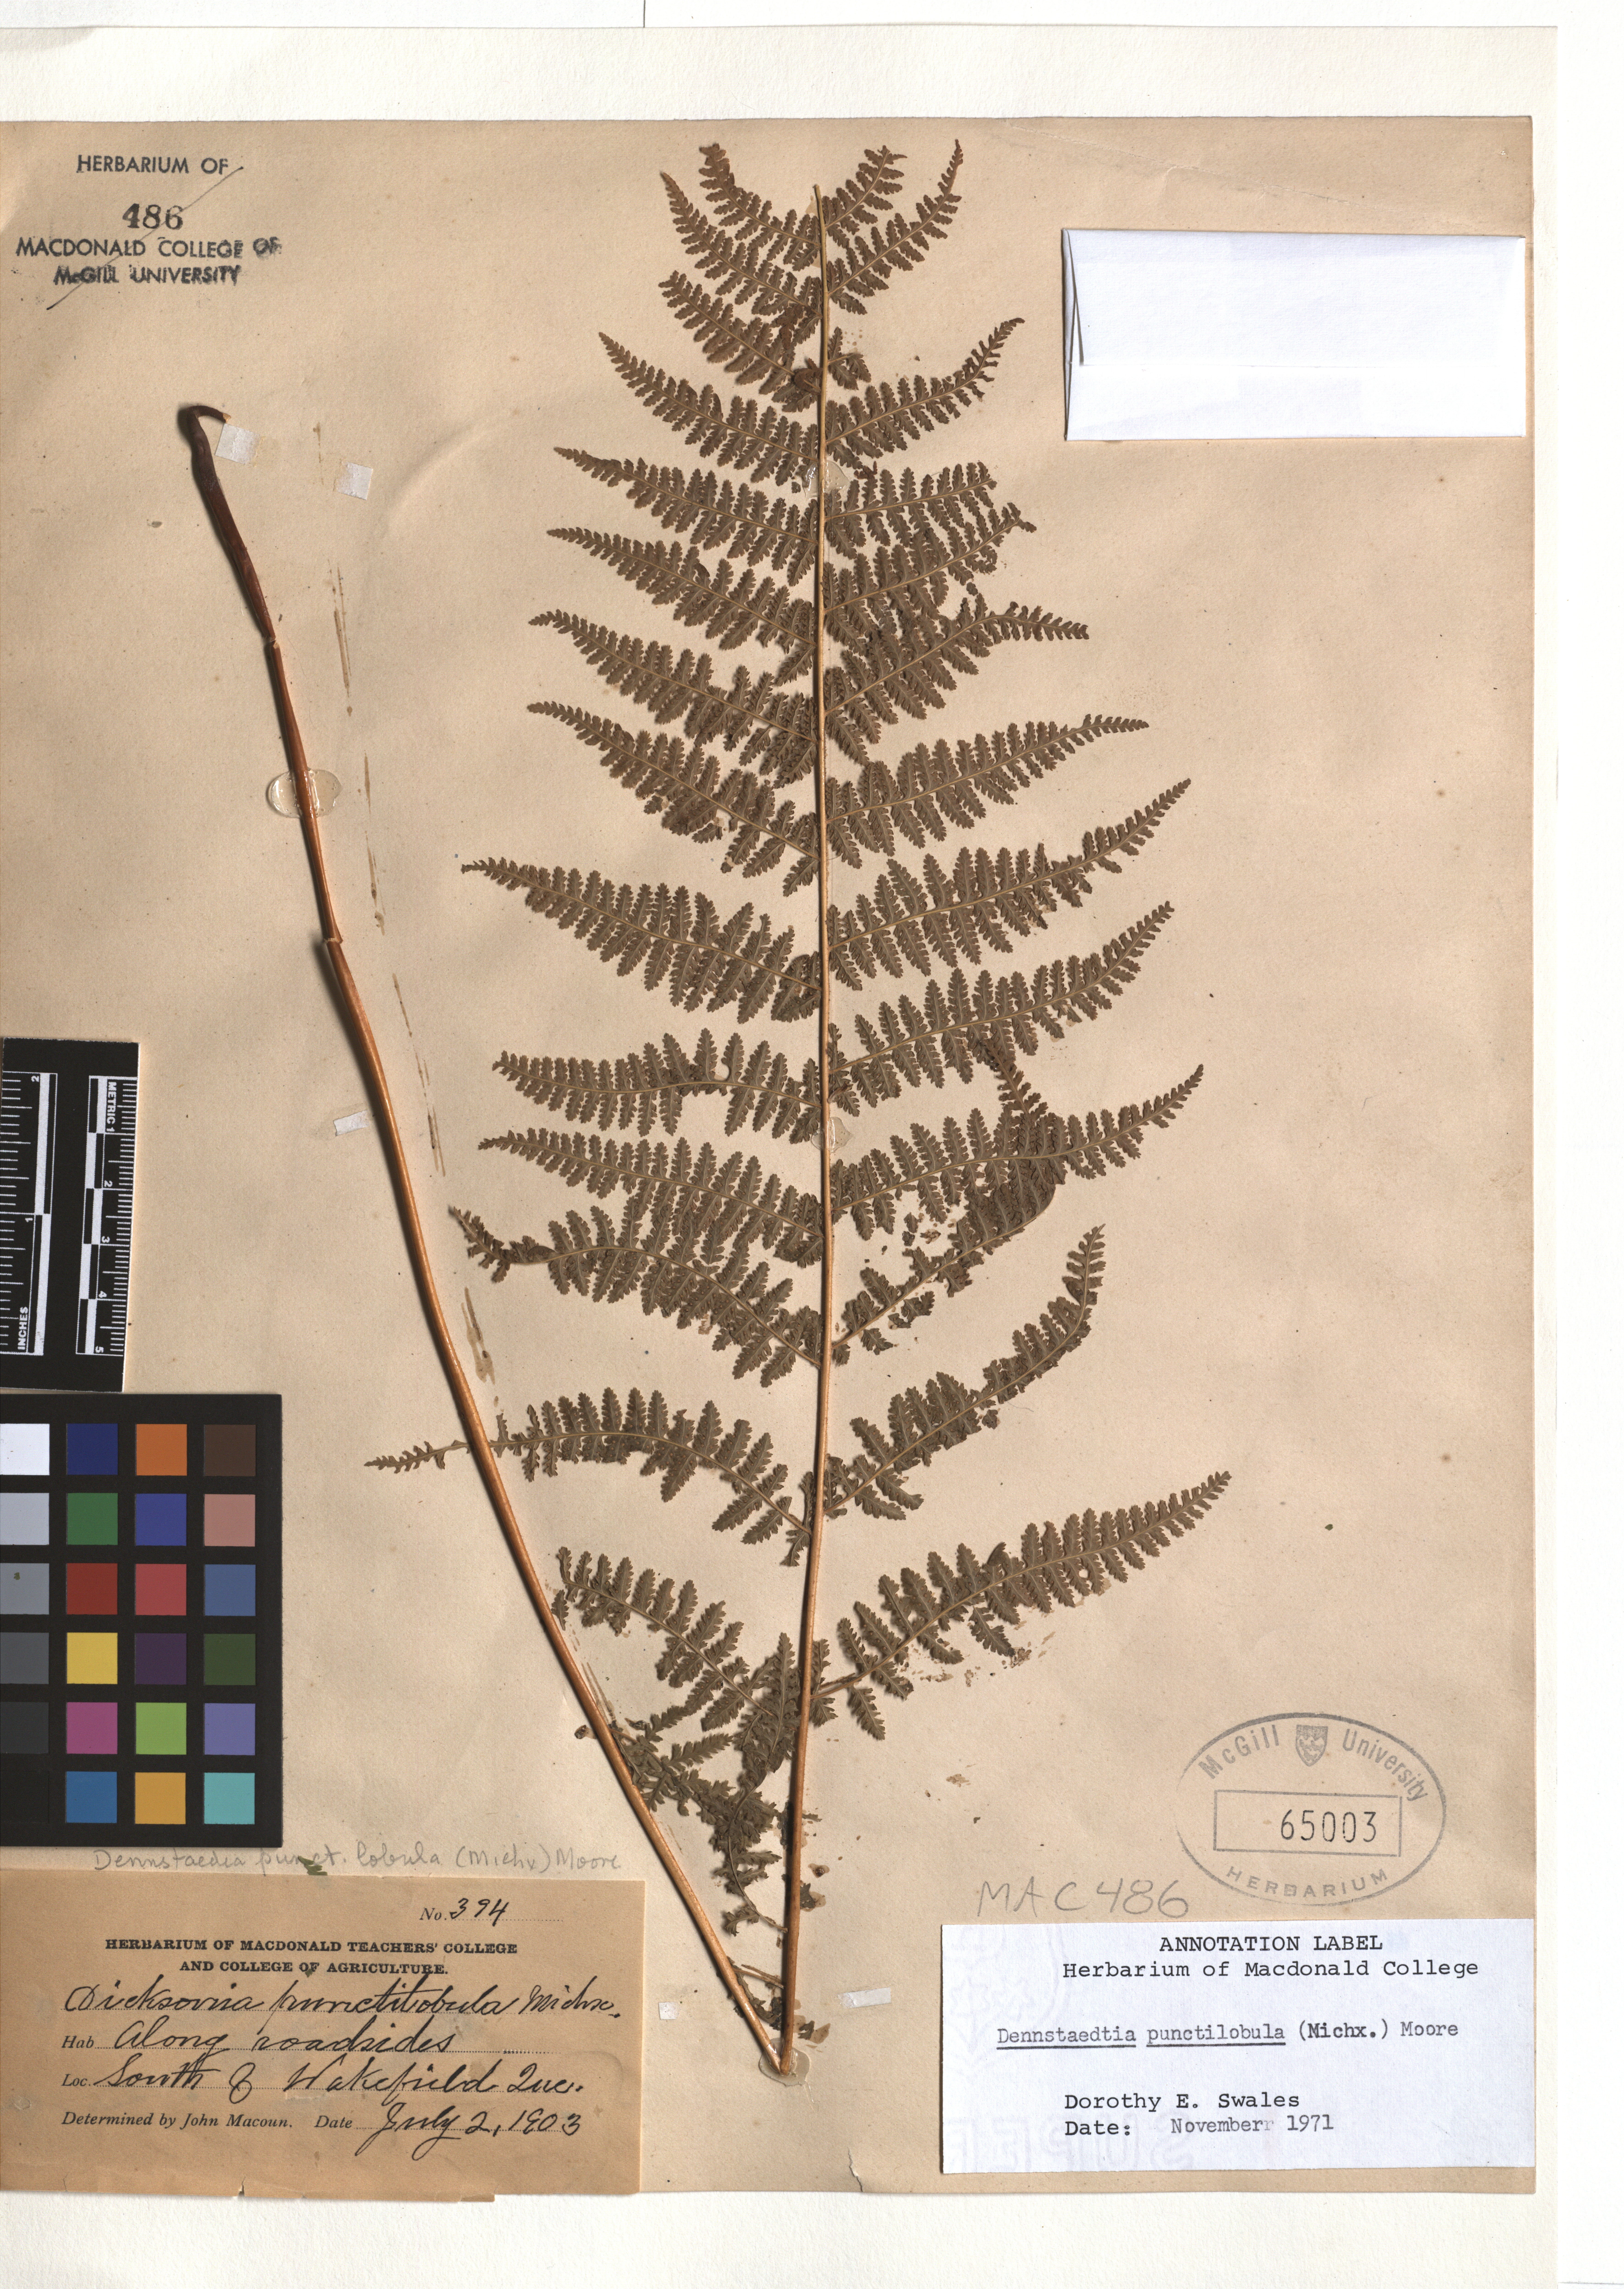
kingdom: Plantae
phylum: Tracheophyta
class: Polypodiopsida
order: Polypodiales
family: Dennstaedtiaceae
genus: Sitobolium
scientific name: Sitobolium punctilobum
